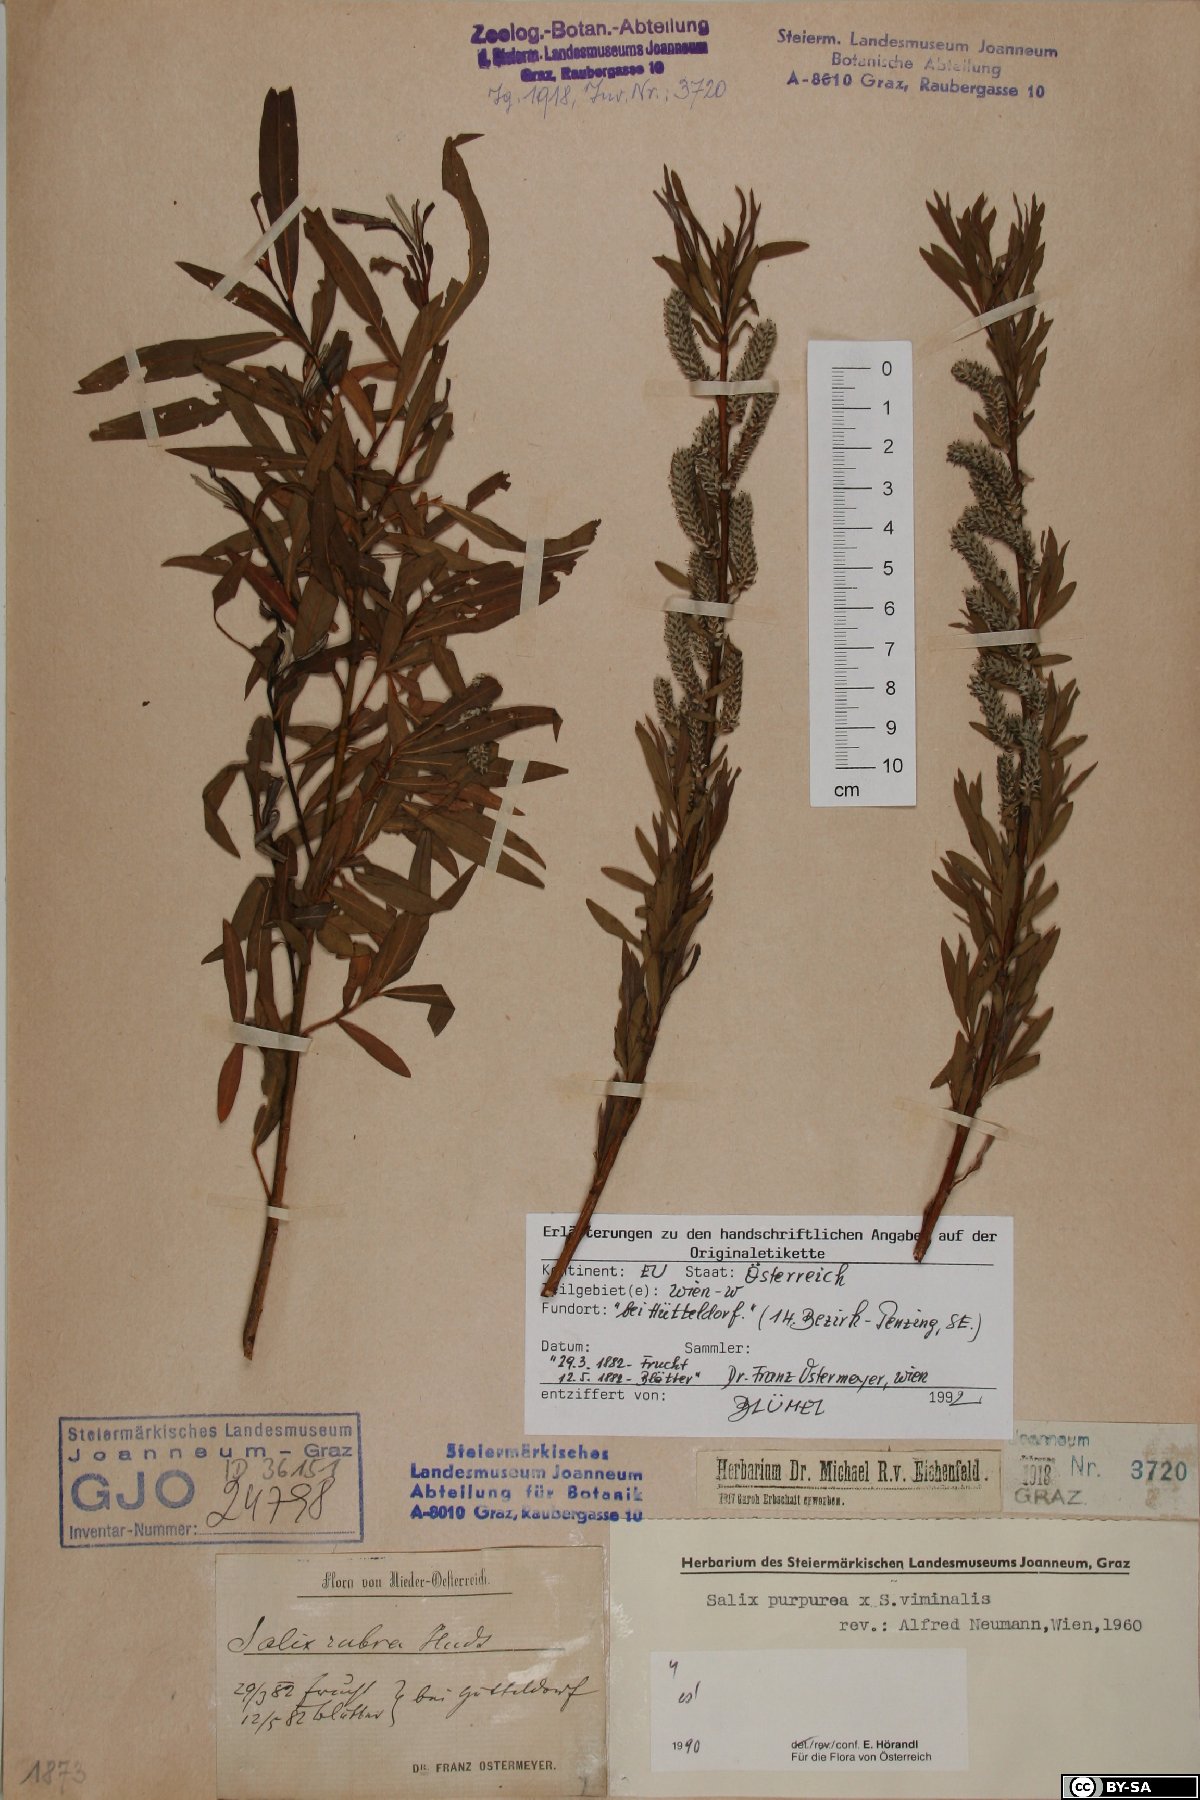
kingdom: Plantae
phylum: Tracheophyta
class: Magnoliopsida
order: Malpighiales
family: Salicaceae
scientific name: Salicaceae
